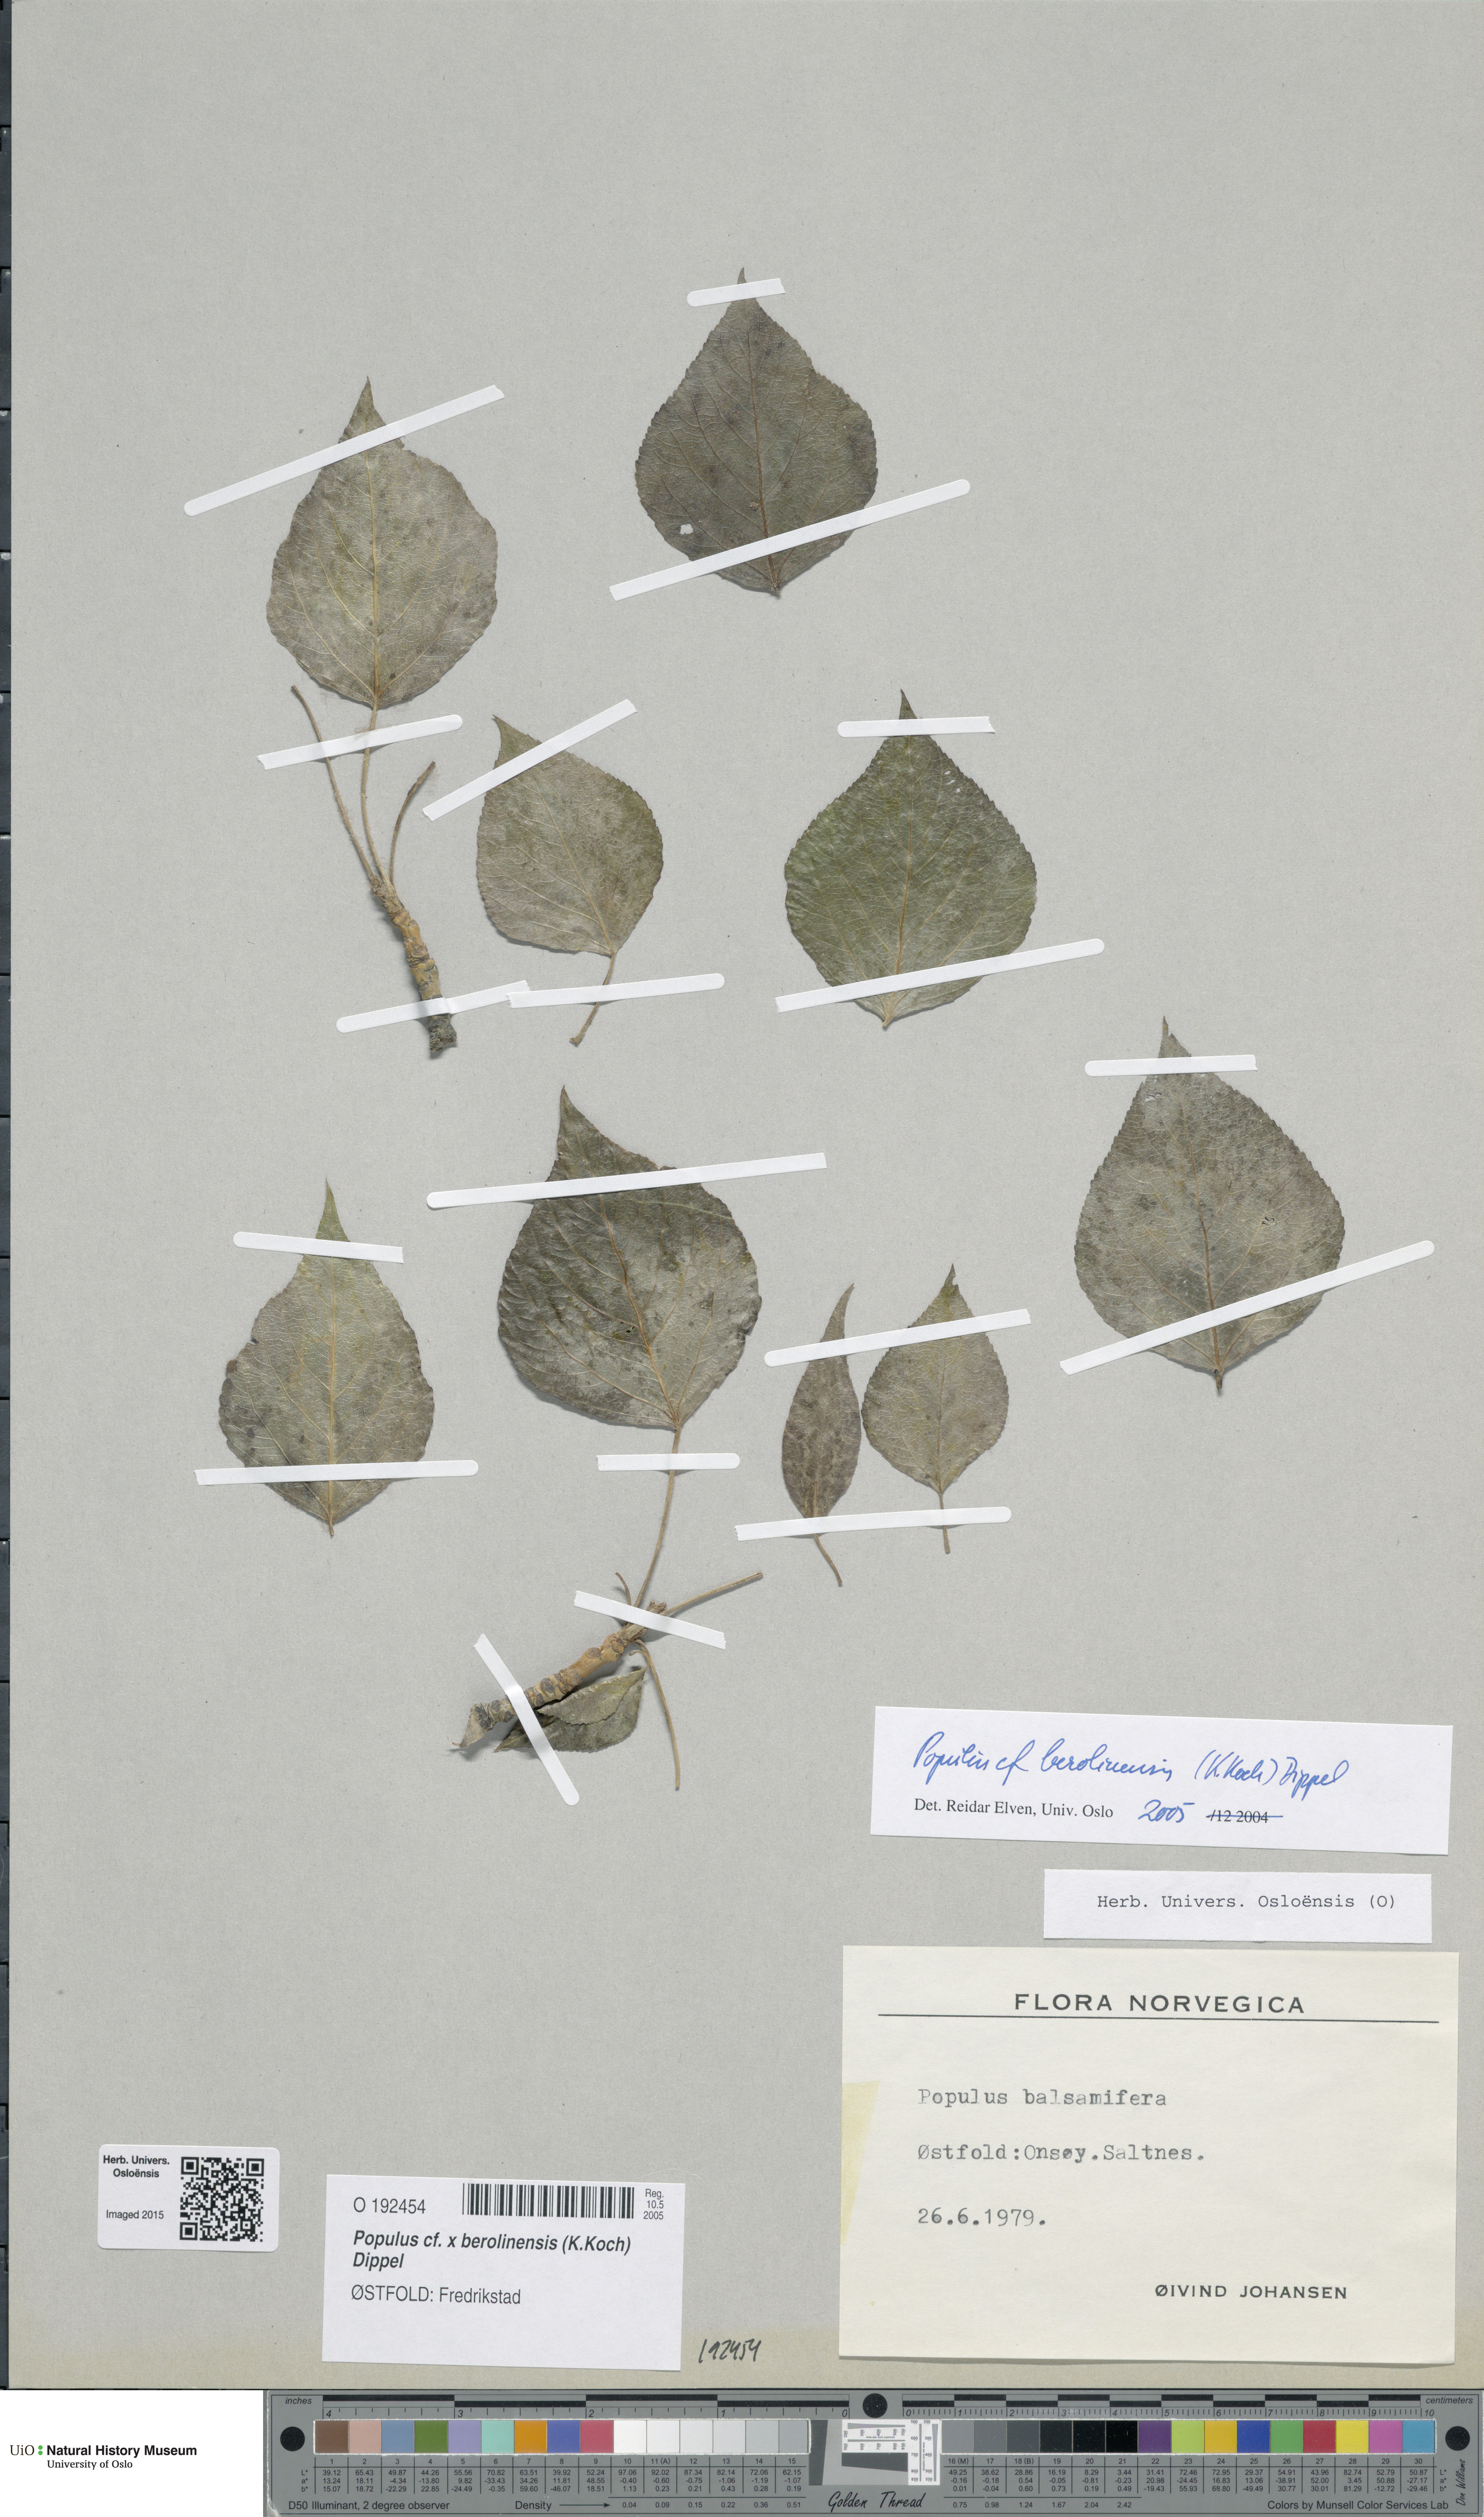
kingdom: Plantae
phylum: Tracheophyta
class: Magnoliopsida
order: Malpighiales
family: Salicaceae
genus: Populus
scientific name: Populus berolinensis
